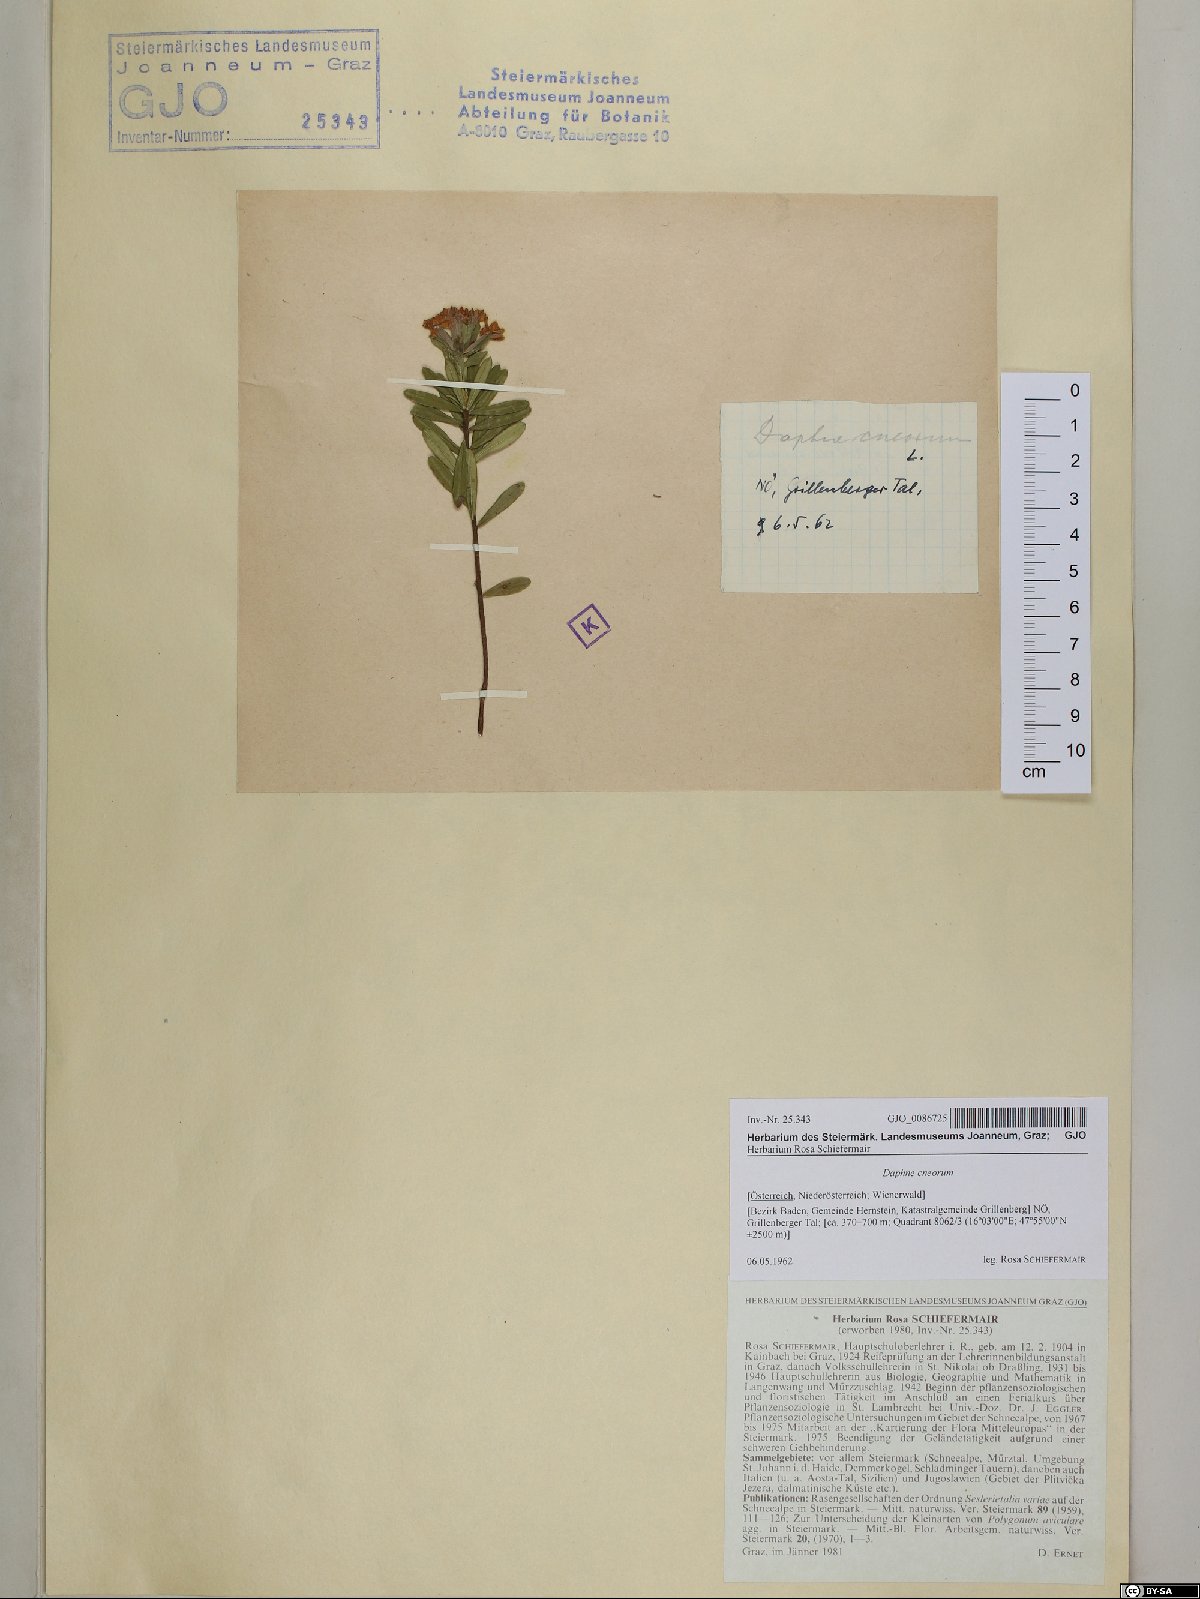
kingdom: Plantae
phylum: Tracheophyta
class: Magnoliopsida
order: Malvales
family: Thymelaeaceae
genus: Daphne
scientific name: Daphne cneorum
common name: Garland-flower
